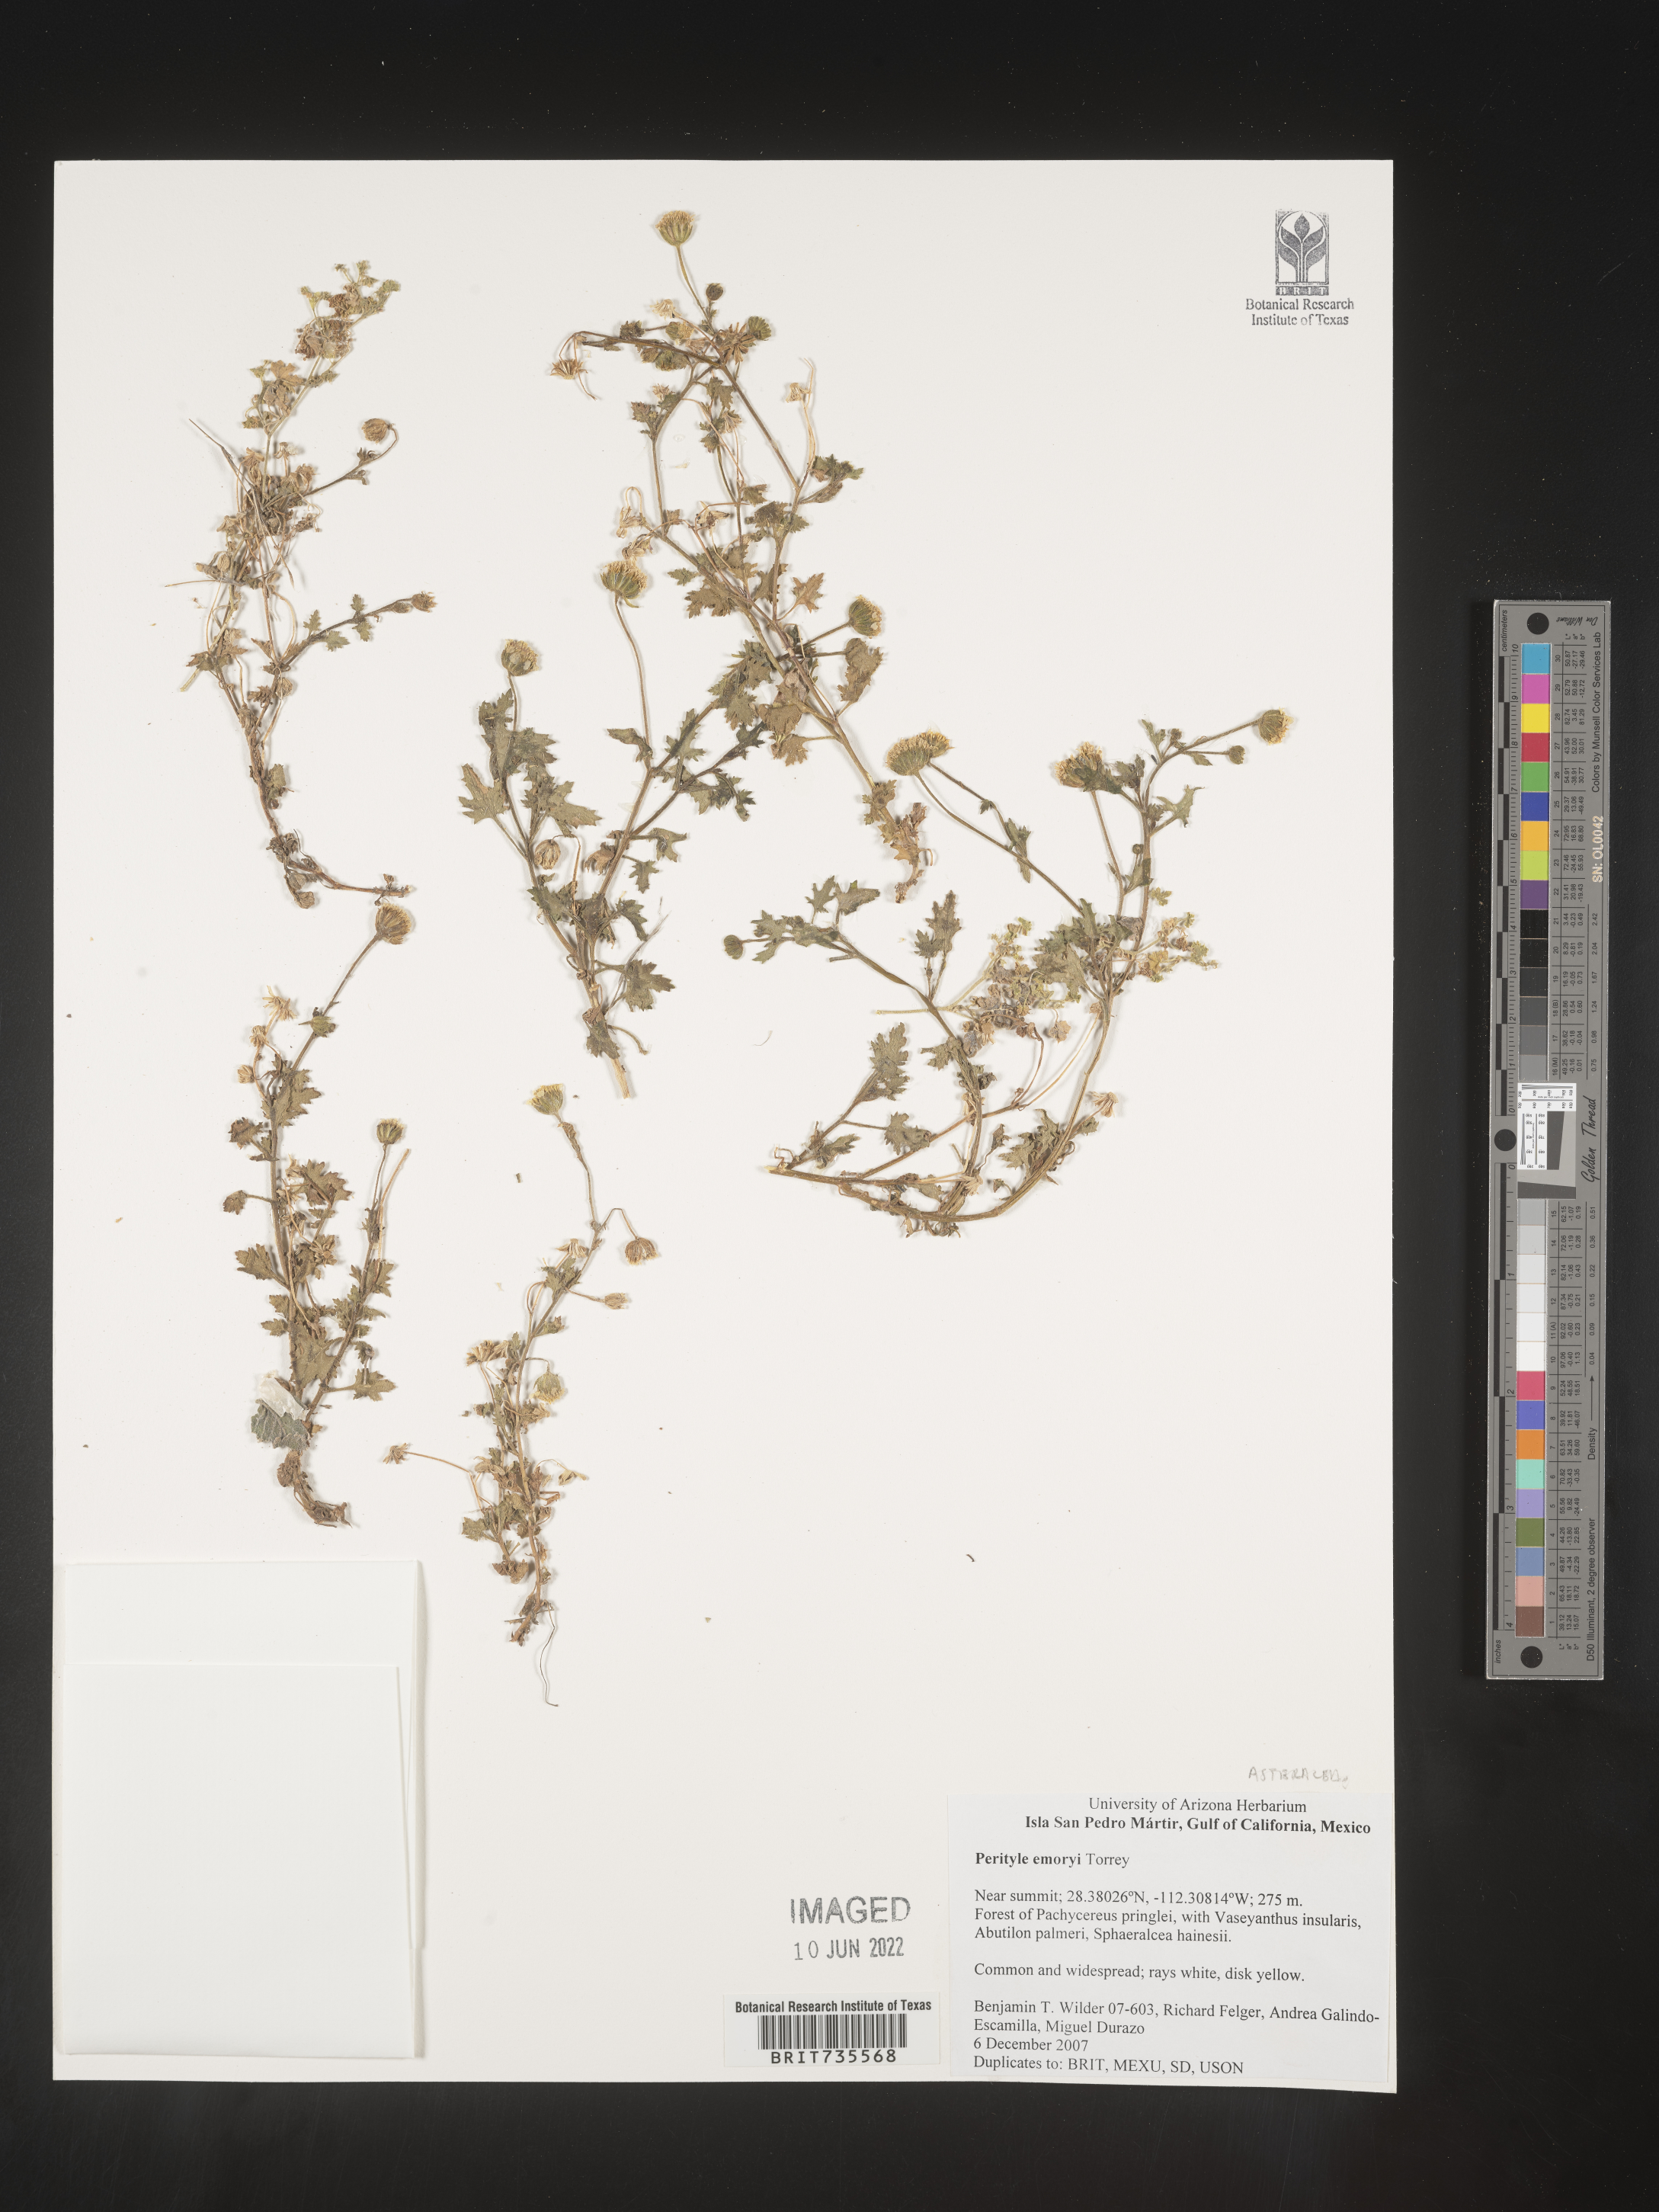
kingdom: Plantae
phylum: Tracheophyta
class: Magnoliopsida
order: Asterales
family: Asteraceae
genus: Perityle
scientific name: Perityle
